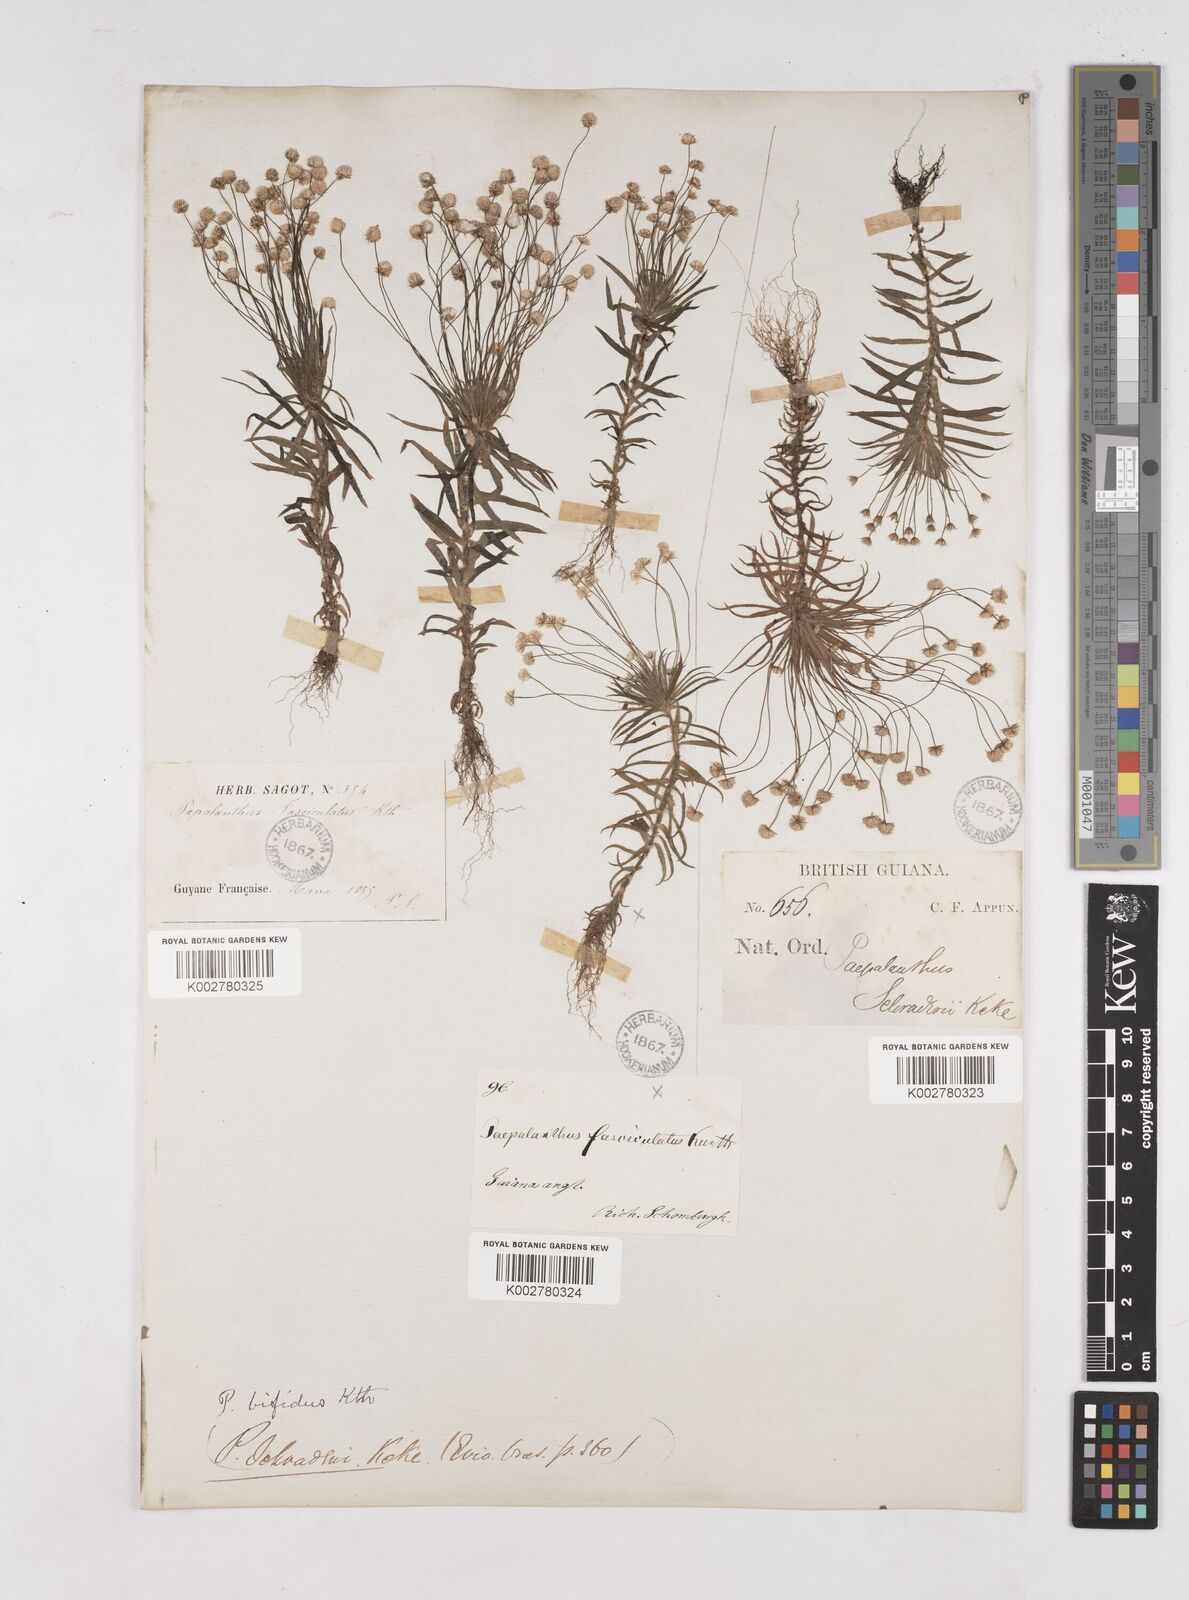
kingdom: Plantae
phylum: Tracheophyta
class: Liliopsida
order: Poales
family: Eriocaulaceae
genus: Paepalanthus
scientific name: Paepalanthus bifidus
